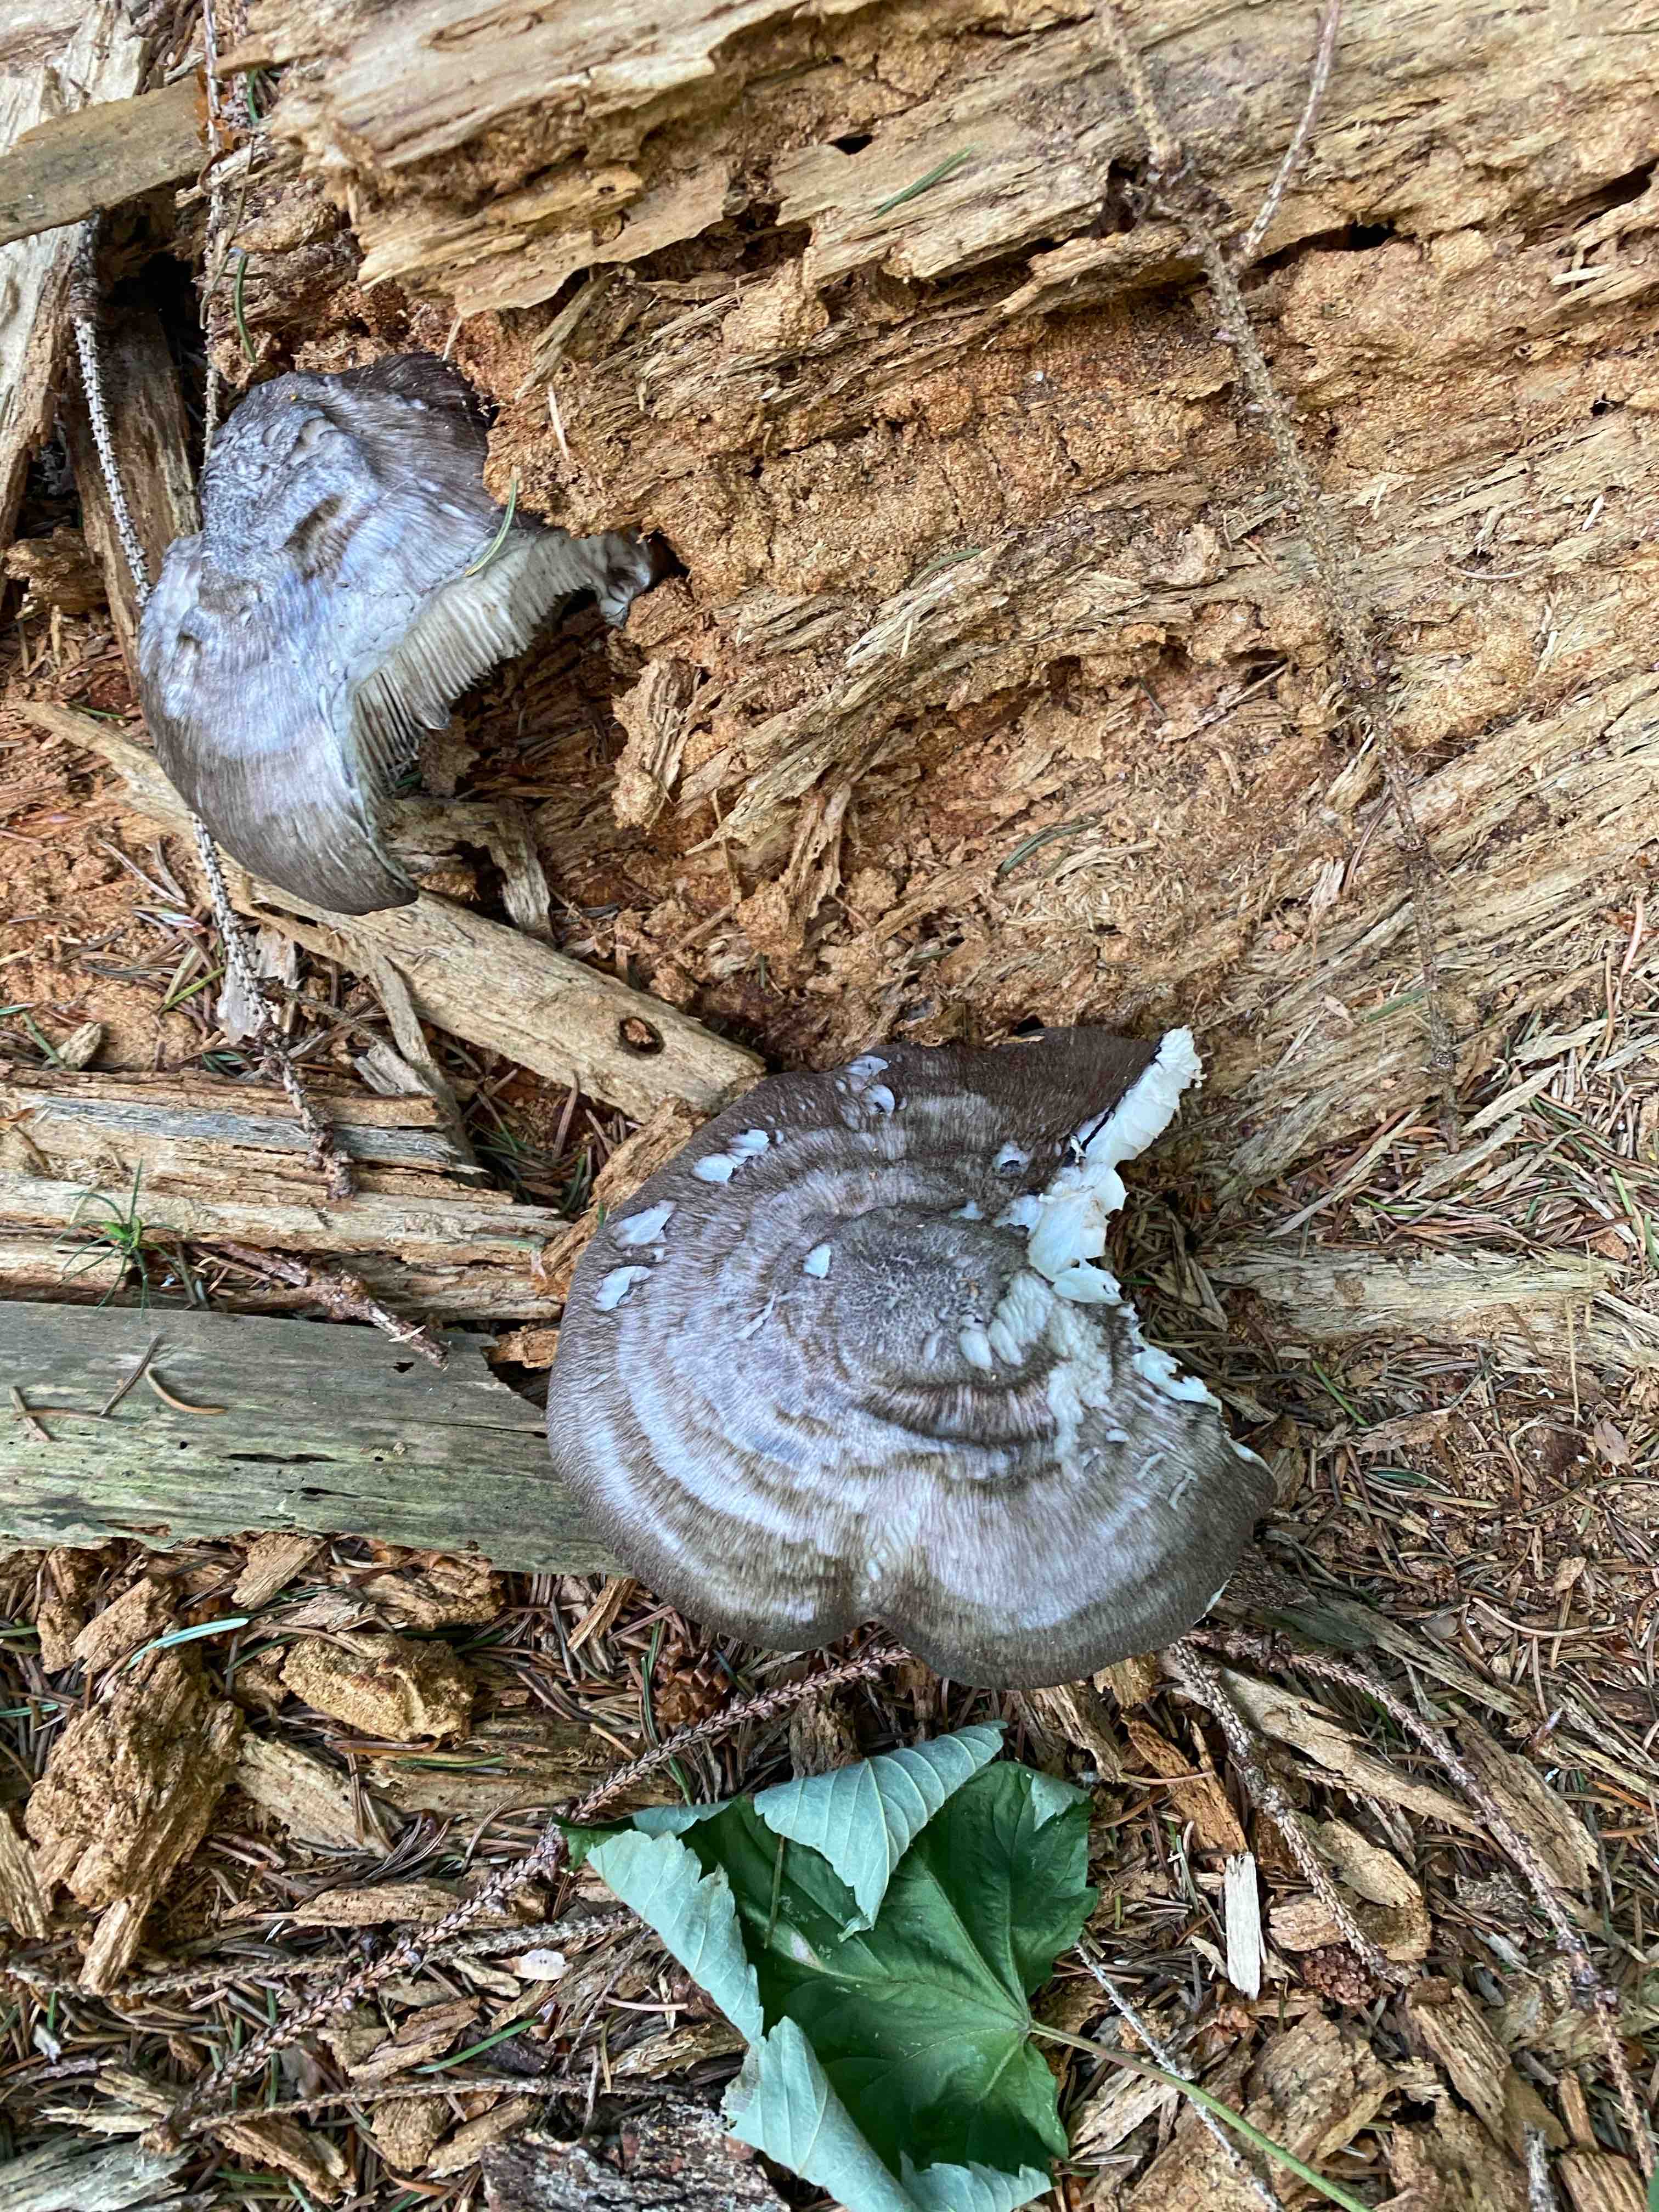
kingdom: Fungi
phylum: Basidiomycota
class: Agaricomycetes
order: Agaricales
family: Pluteaceae
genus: Pluteus
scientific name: Pluteus atromarginatus
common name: sortrandet skærmhat
